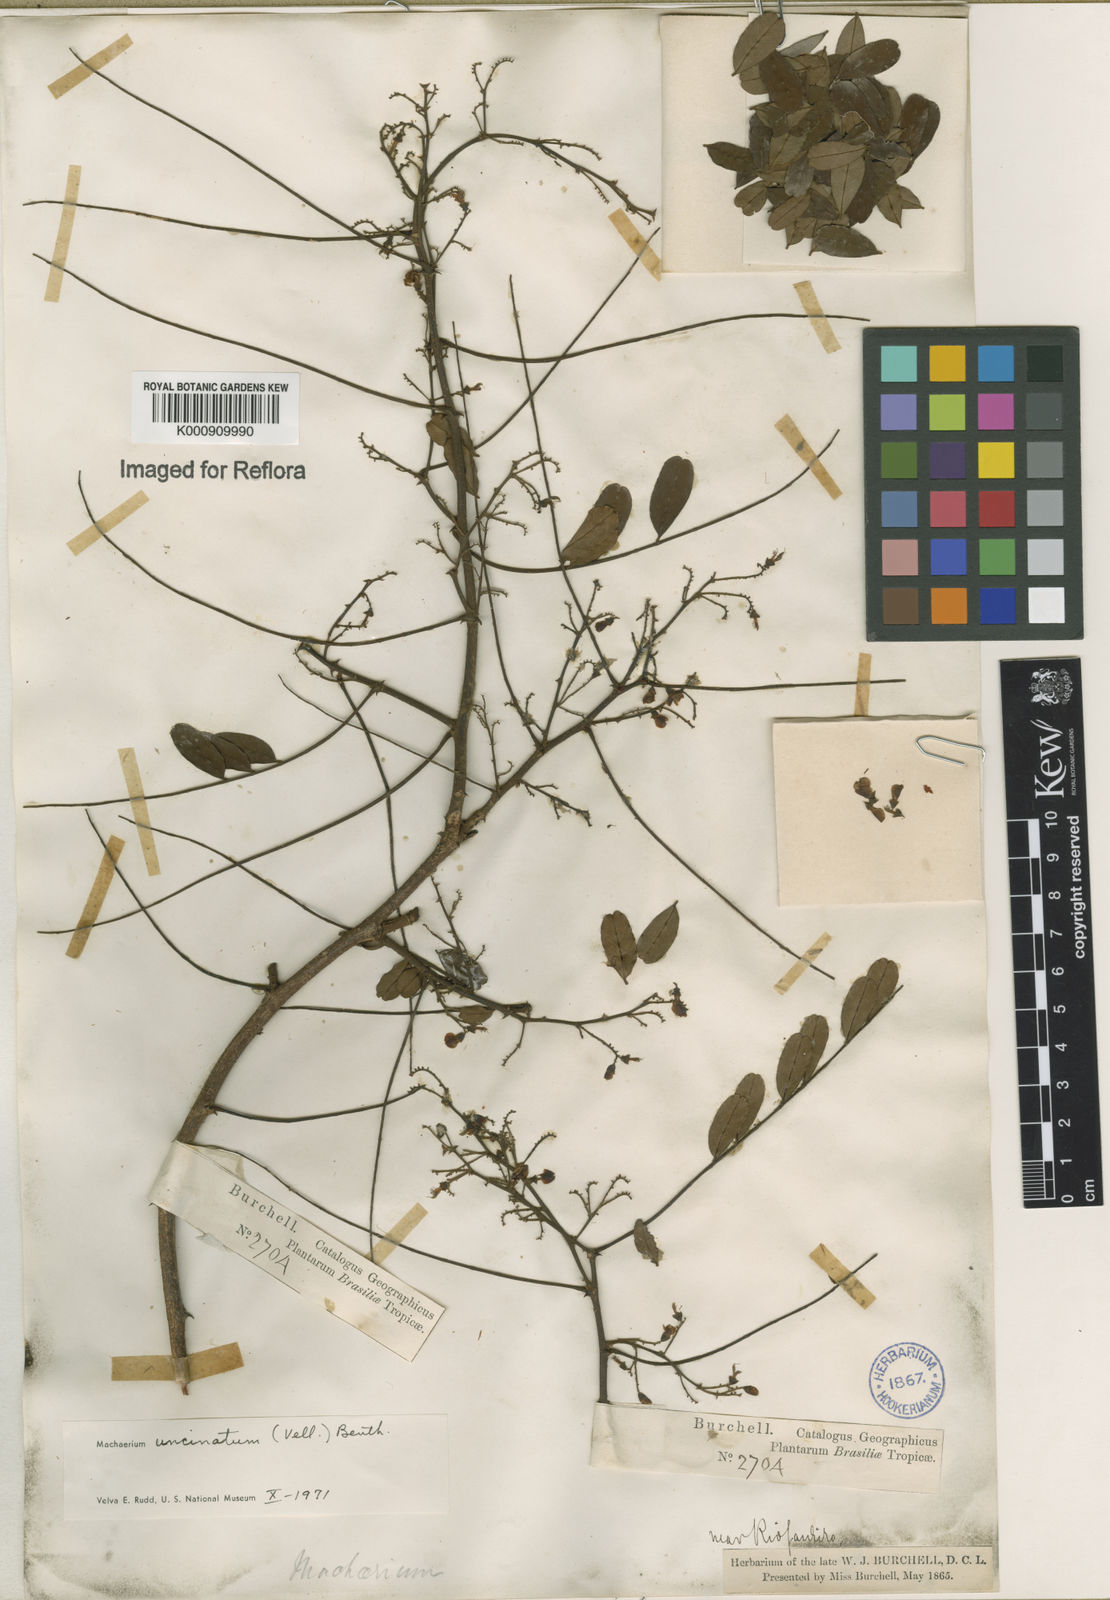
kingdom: Plantae
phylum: Tracheophyta
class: Magnoliopsida
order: Fabales
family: Fabaceae
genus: Machaerium
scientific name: Machaerium uncinatum
